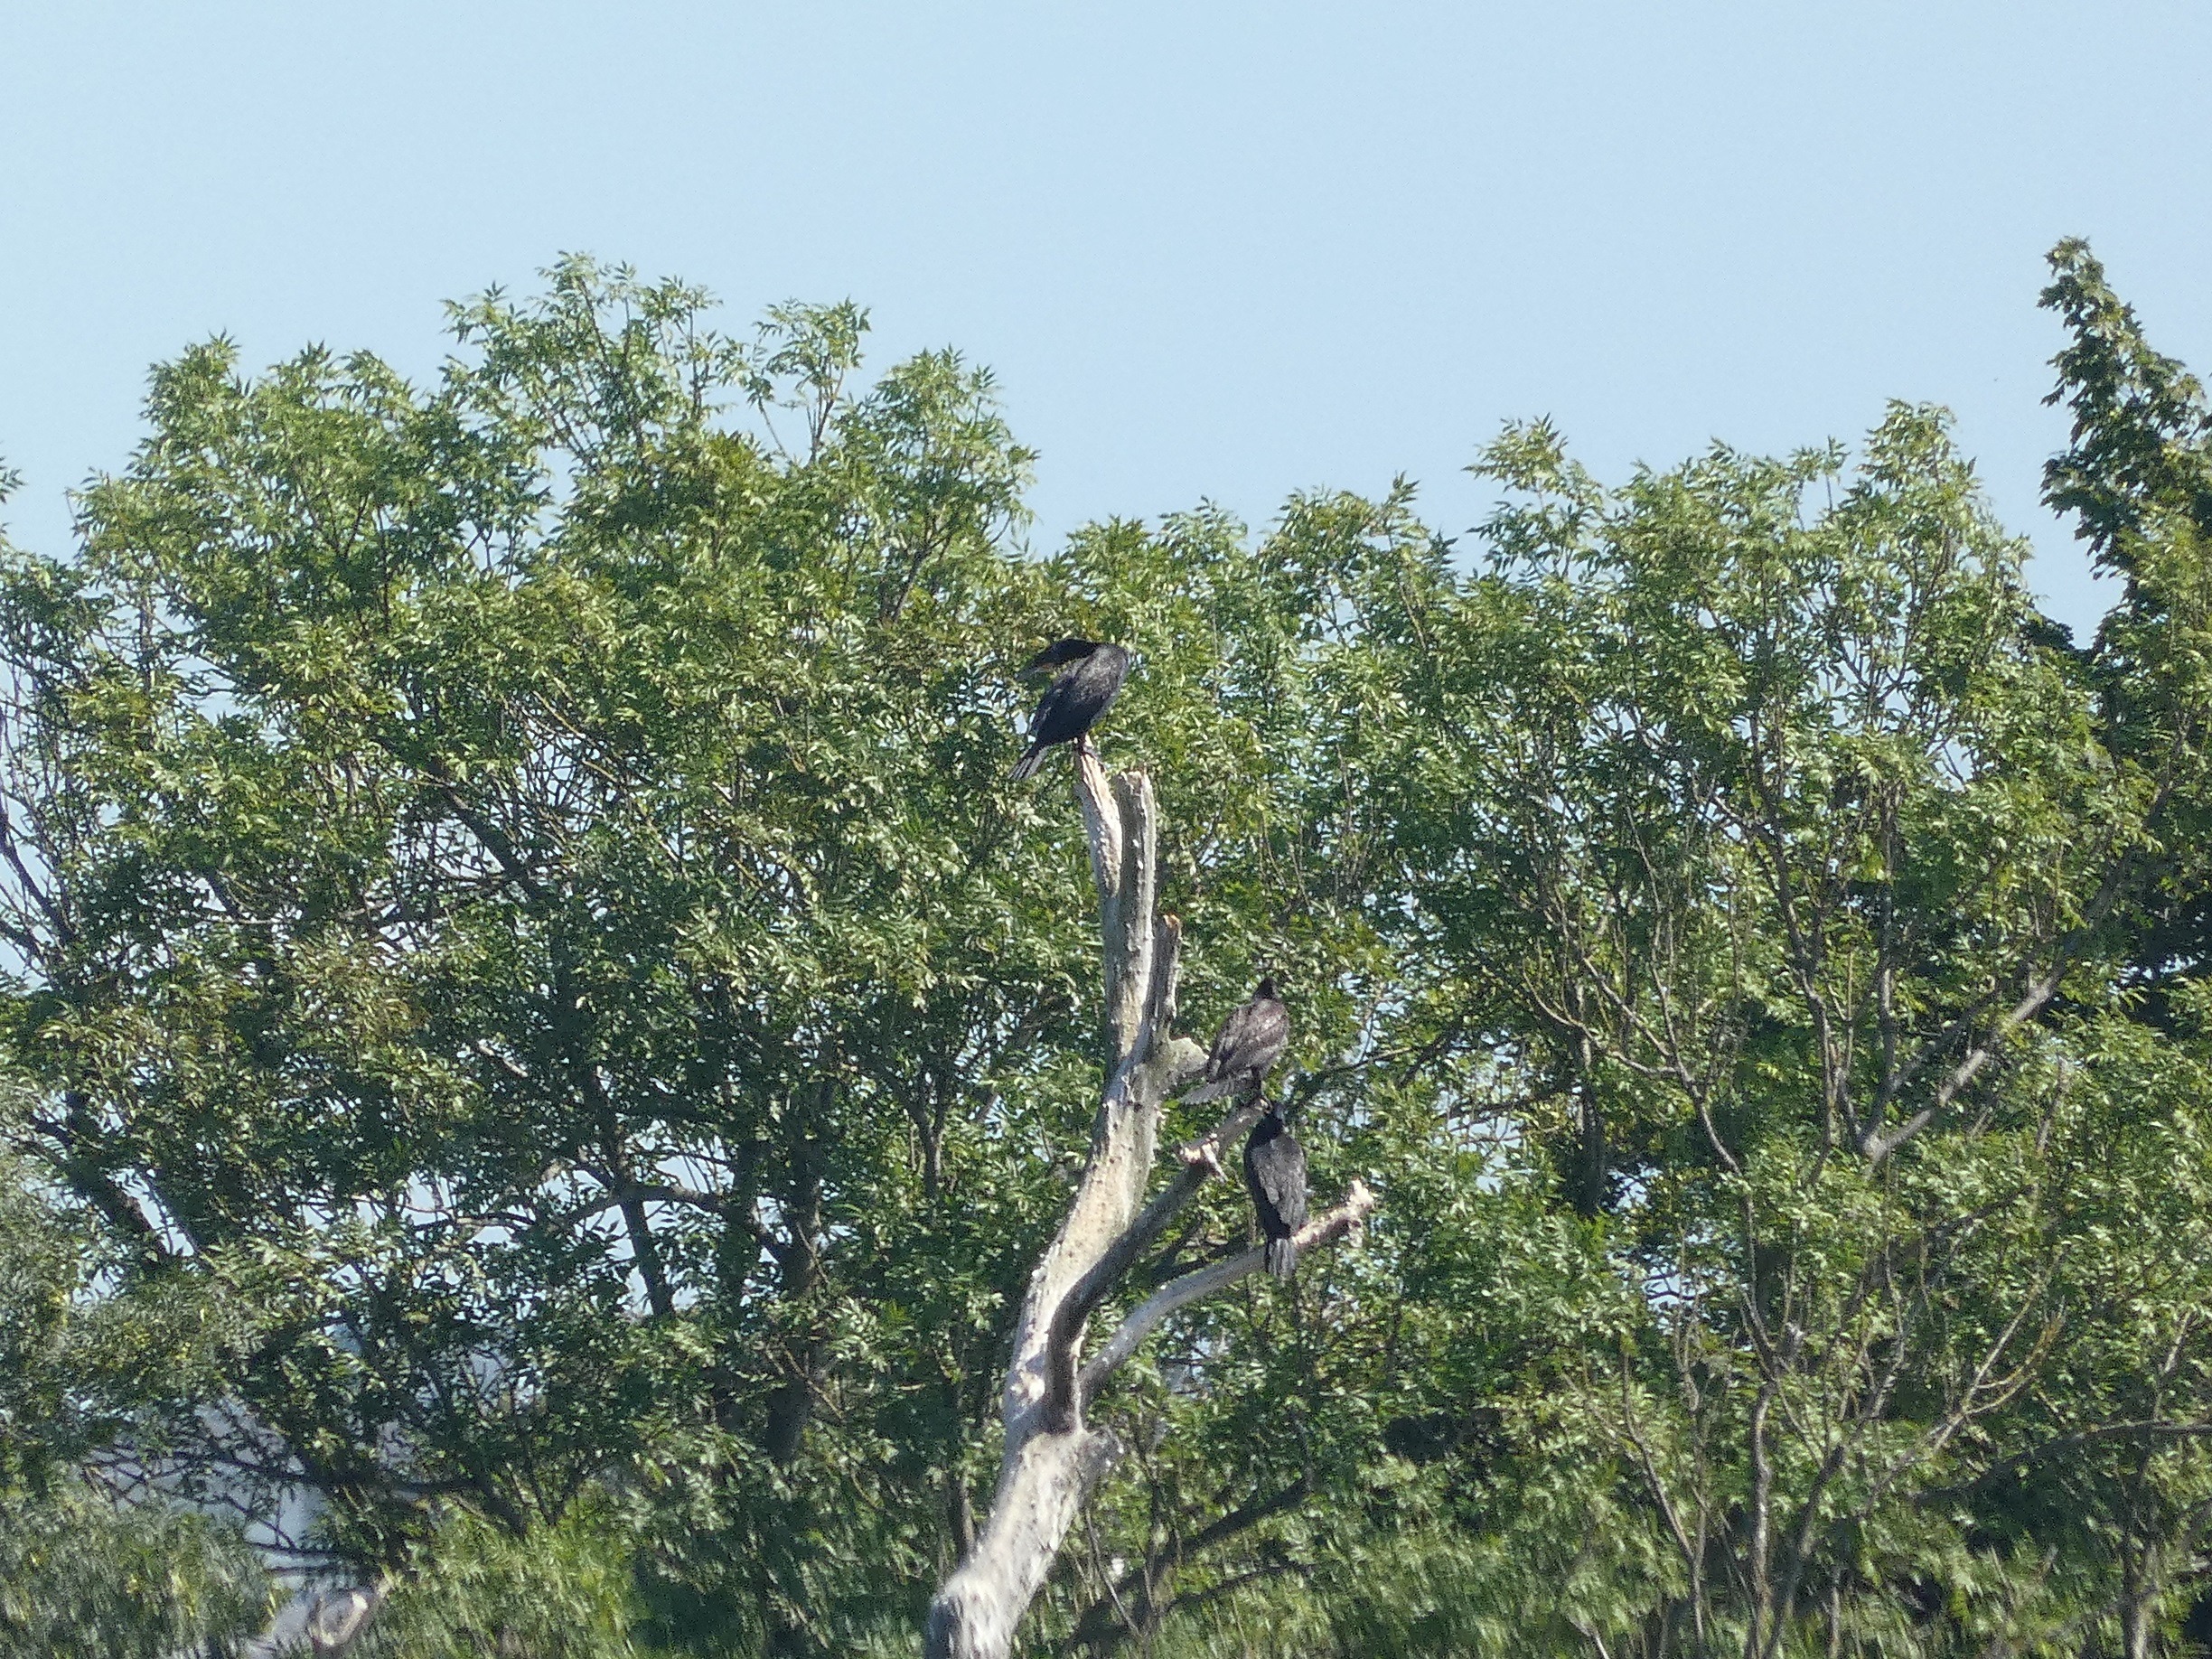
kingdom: Animalia
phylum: Chordata
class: Aves
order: Suliformes
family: Phalacrocoracidae
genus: Phalacrocorax
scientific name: Phalacrocorax carbo
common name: Skarv
